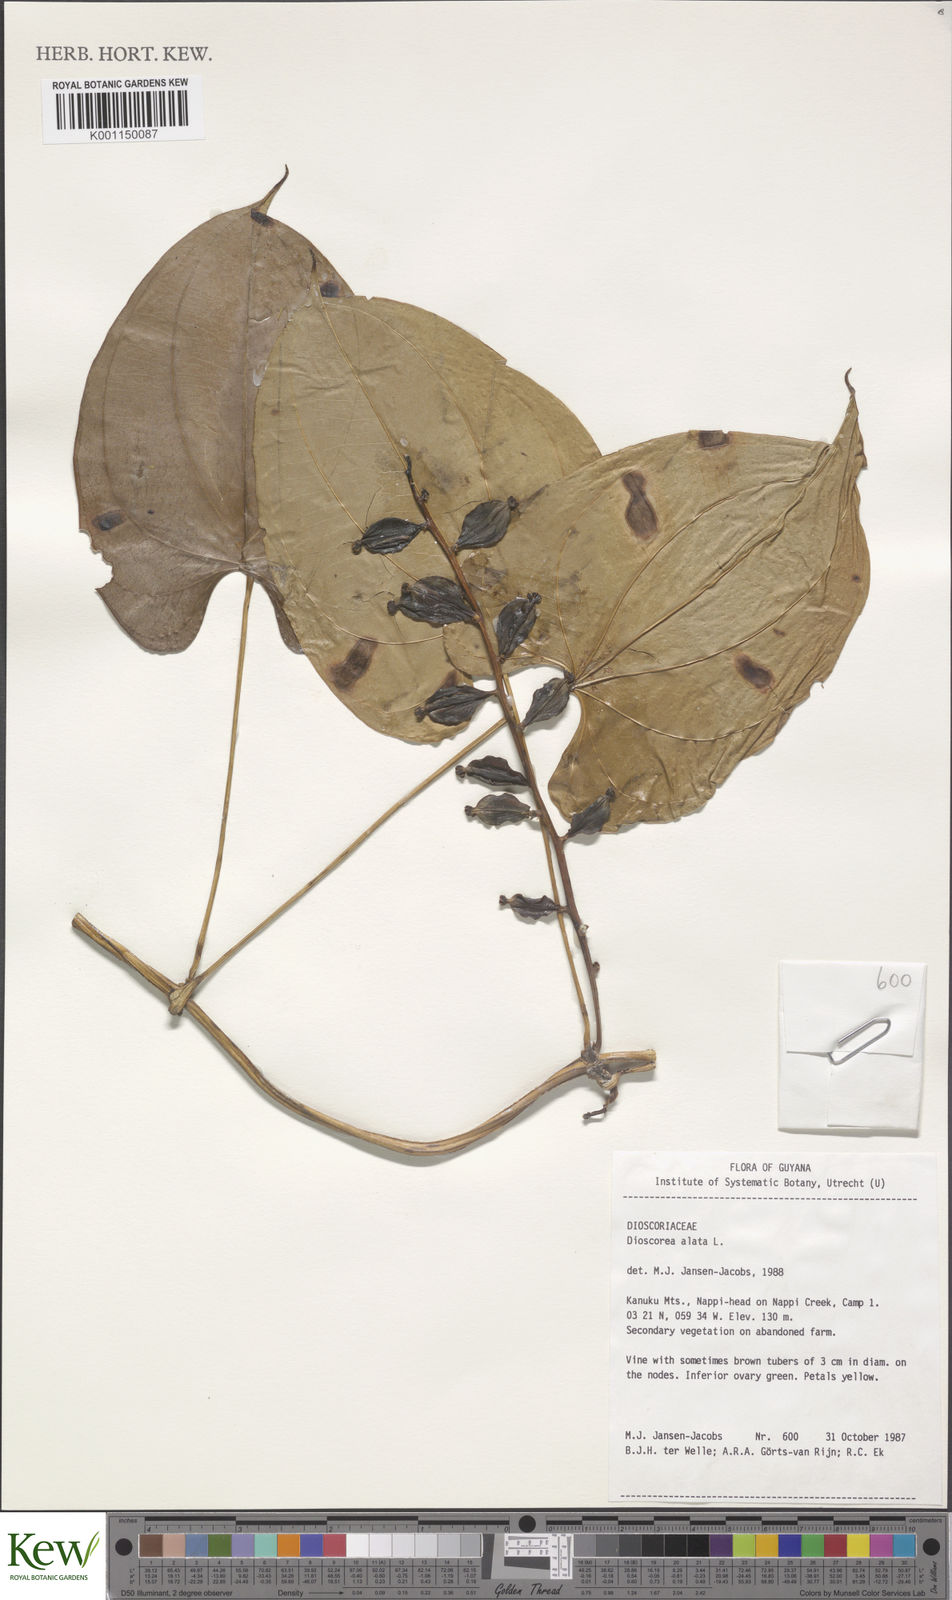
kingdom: Plantae
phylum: Tracheophyta
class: Liliopsida
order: Dioscoreales
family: Dioscoreaceae
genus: Dioscorea
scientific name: Dioscorea alata
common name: Water yam
